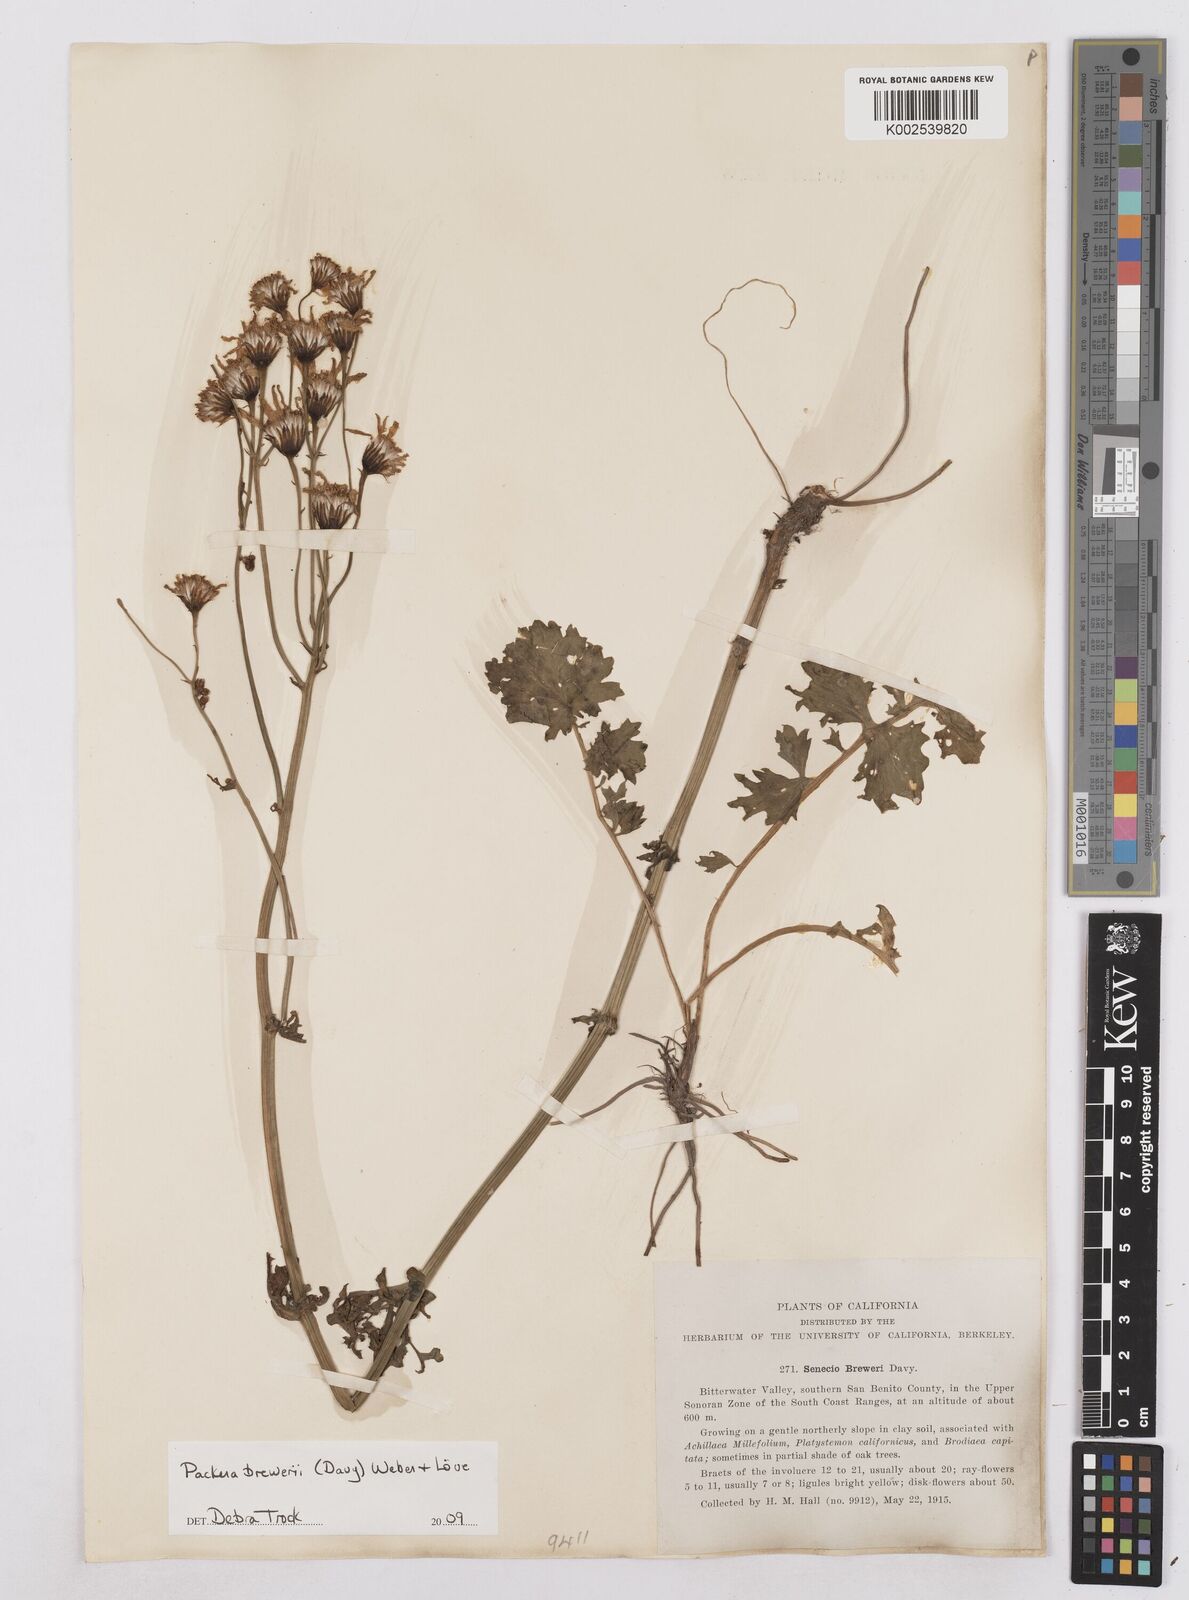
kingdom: Plantae
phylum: Tracheophyta
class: Magnoliopsida
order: Asterales
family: Asteraceae
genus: Packera
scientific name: Packera breweri
